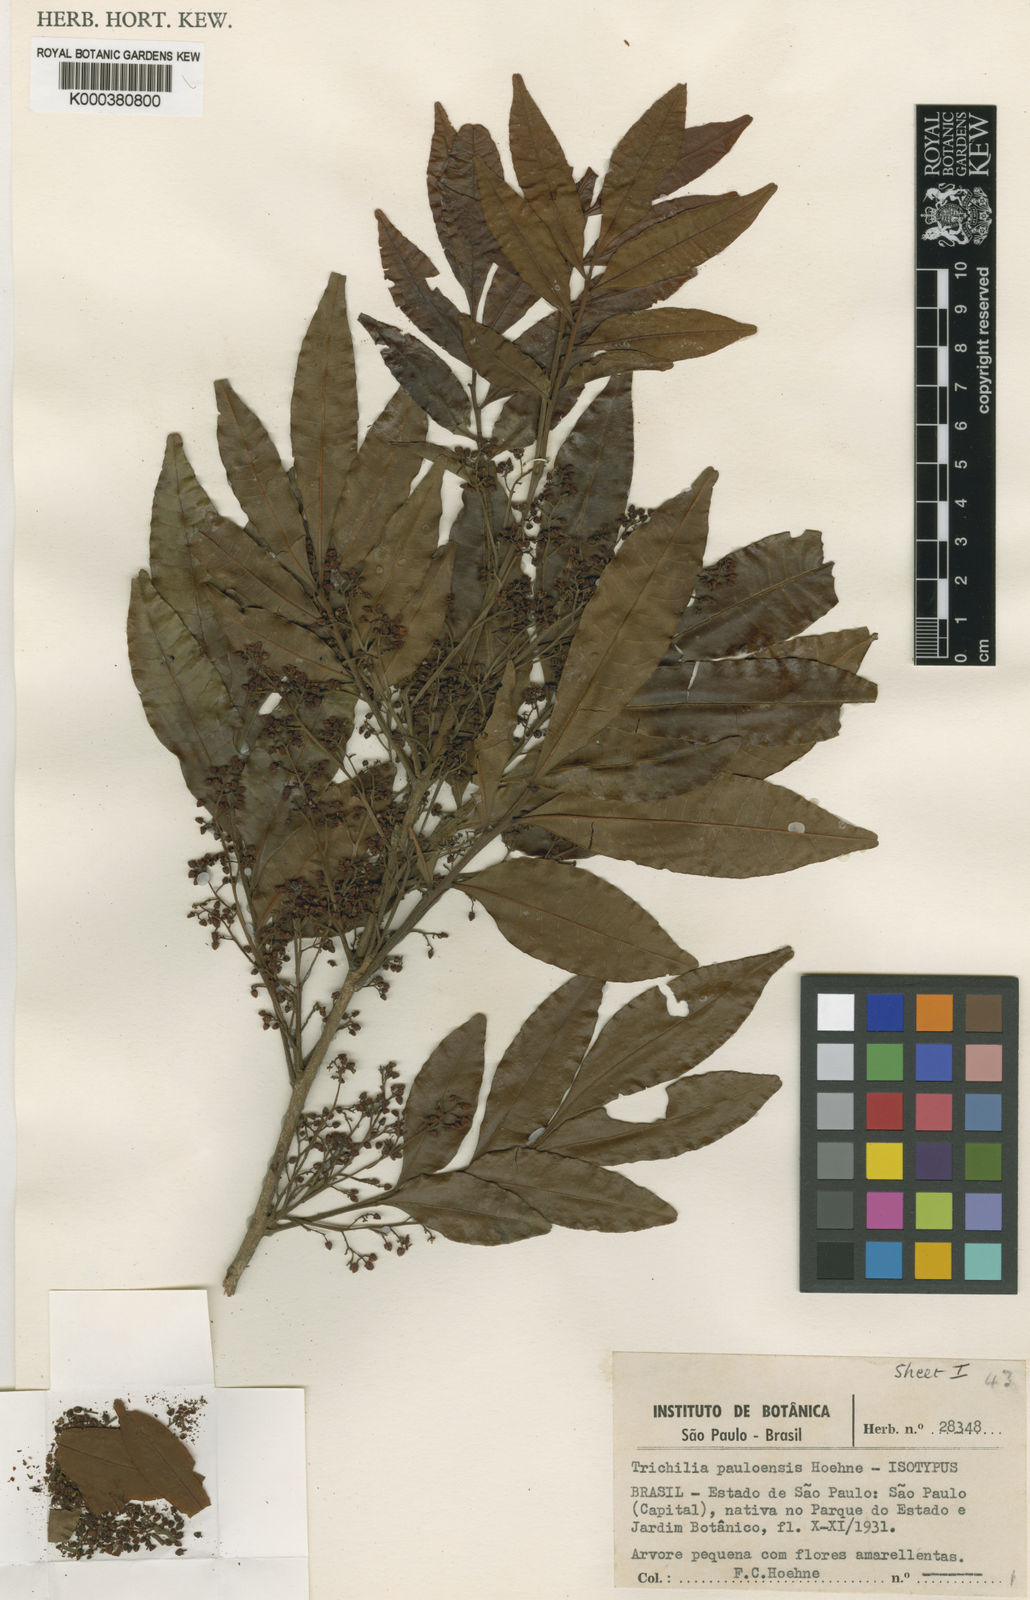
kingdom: Plantae
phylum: Tracheophyta
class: Magnoliopsida
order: Sapindales
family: Meliaceae
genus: Trichilia
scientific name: Trichilia emarginata
